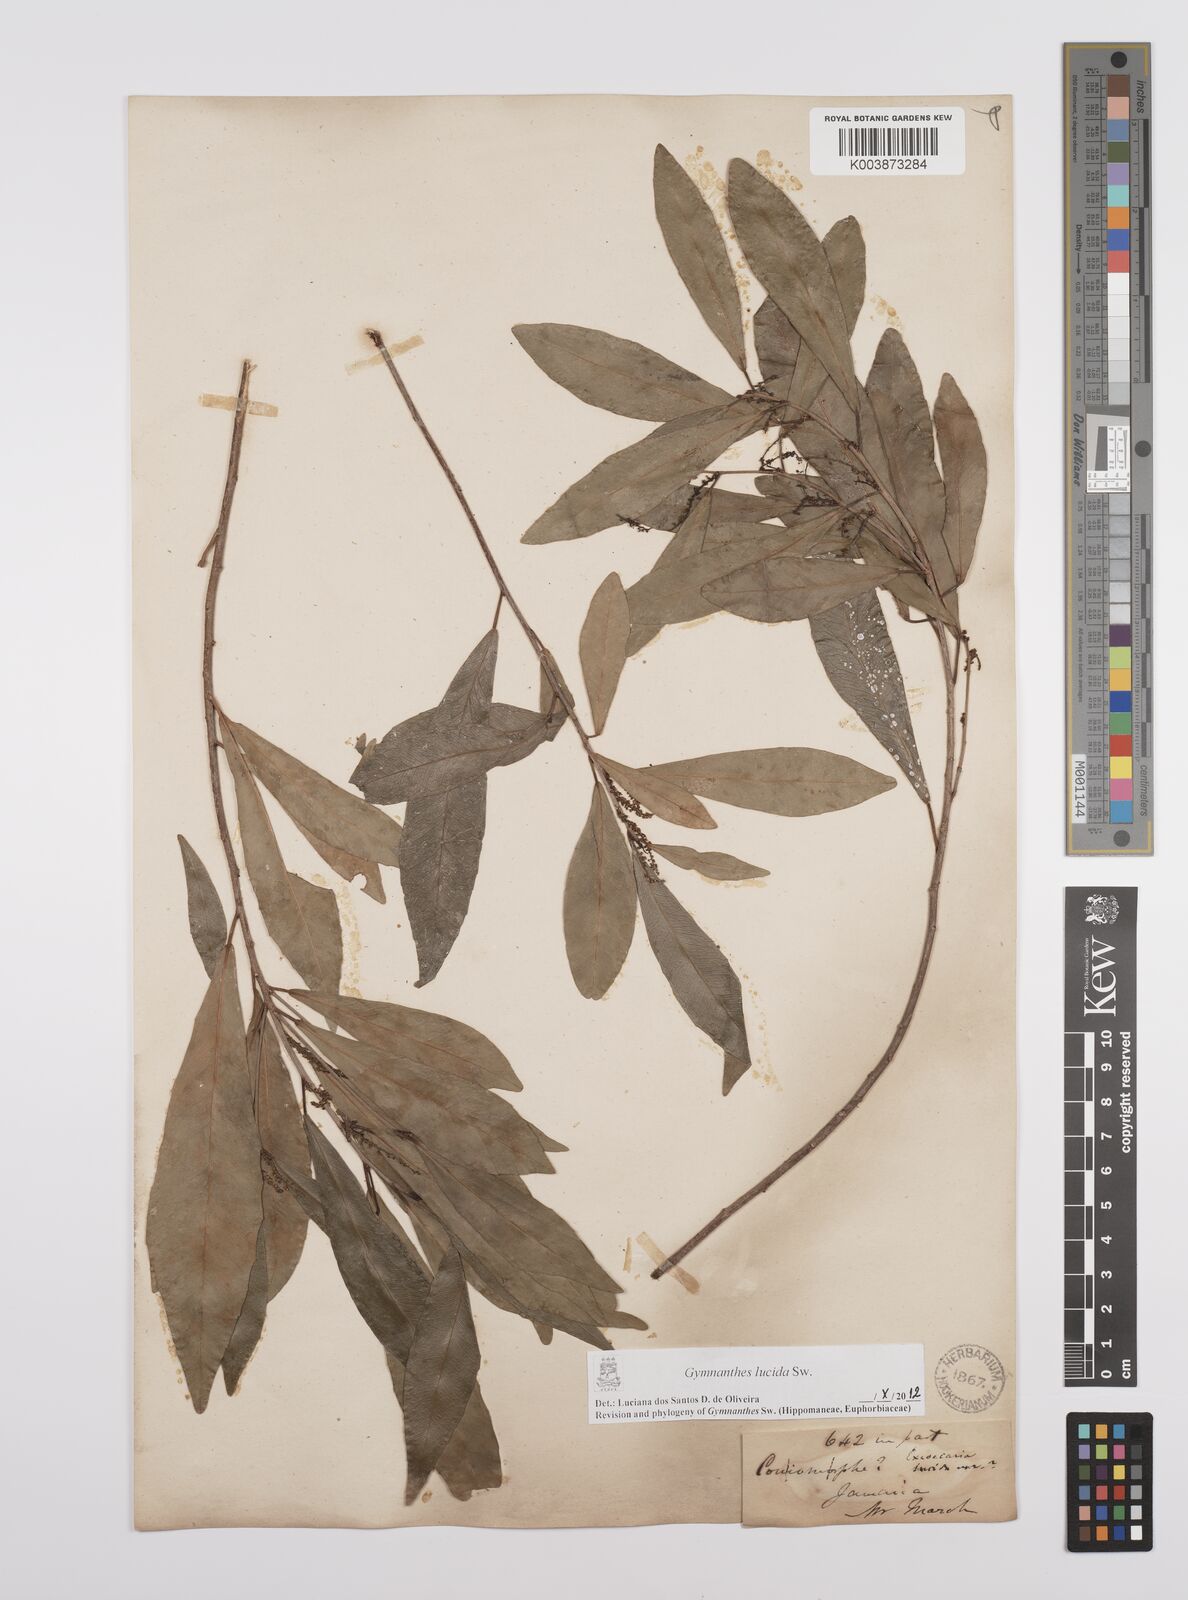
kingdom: Plantae
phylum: Tracheophyta
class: Magnoliopsida
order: Malpighiales
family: Euphorbiaceae
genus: Gymnanthes
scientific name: Gymnanthes lucida
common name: Oysterwood
